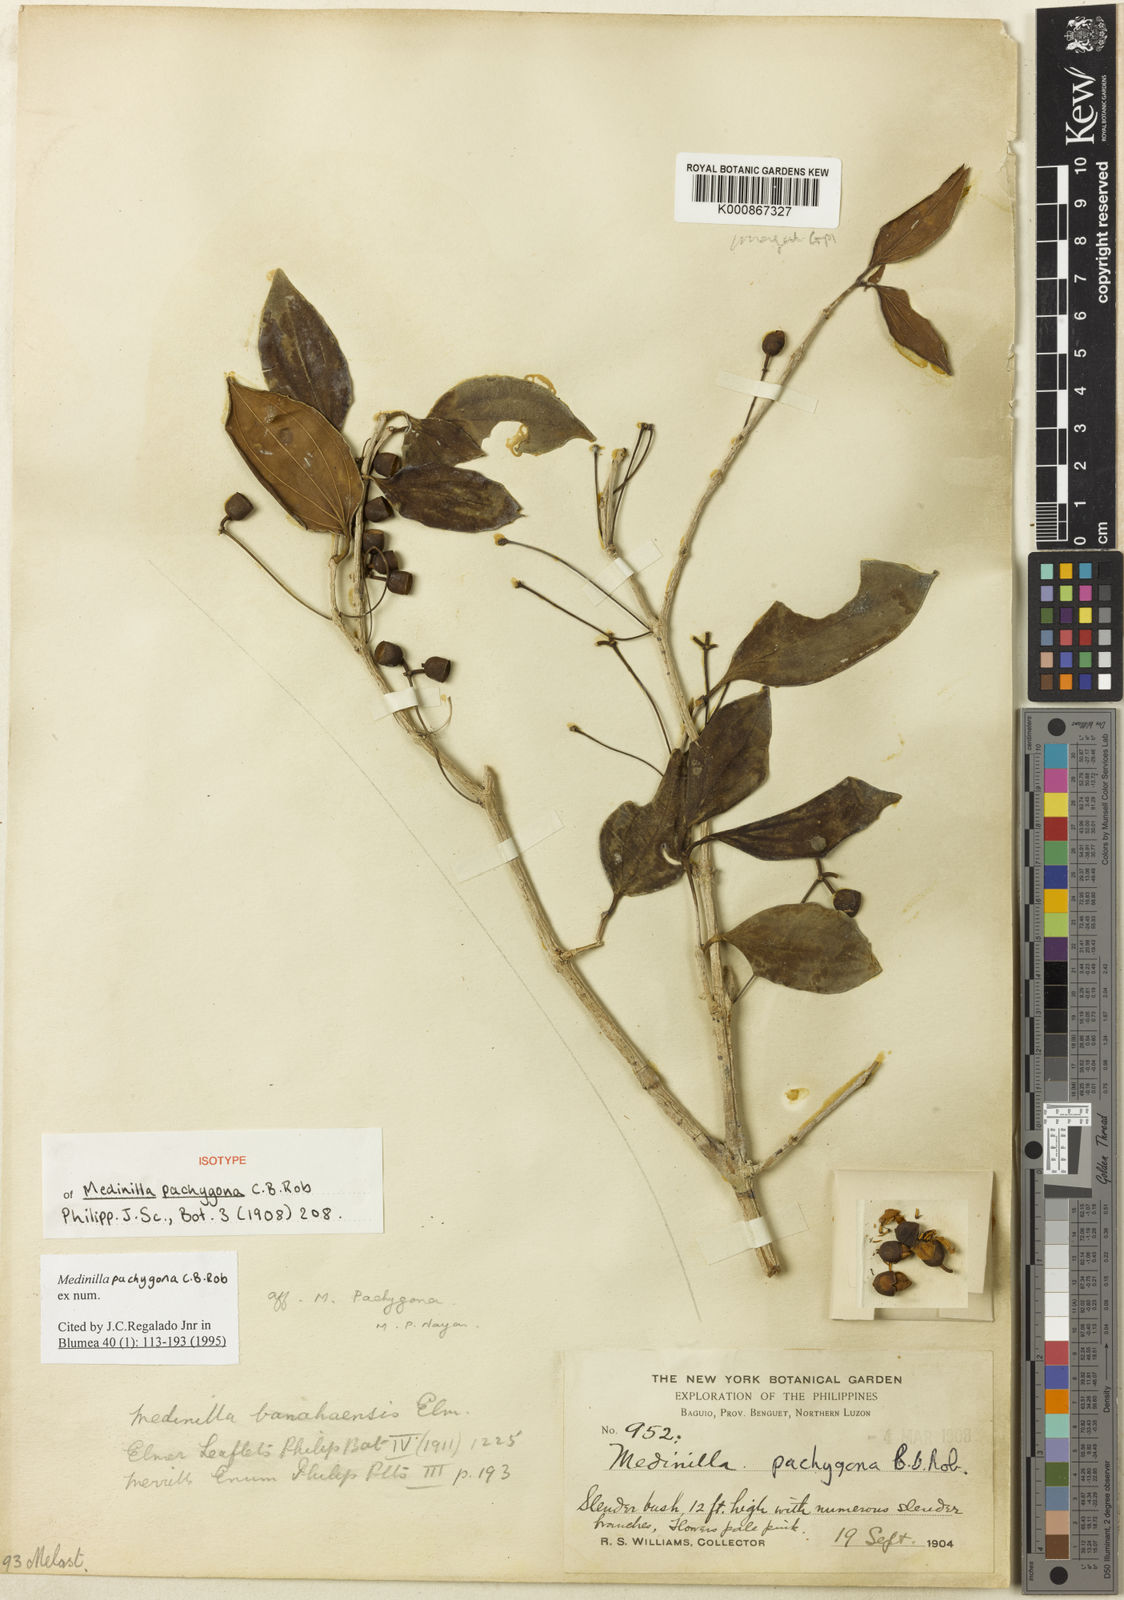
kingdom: Plantae
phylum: Tracheophyta
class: Magnoliopsida
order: Myrtales
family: Melastomataceae
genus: Medinilla
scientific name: Medinilla pachygona
